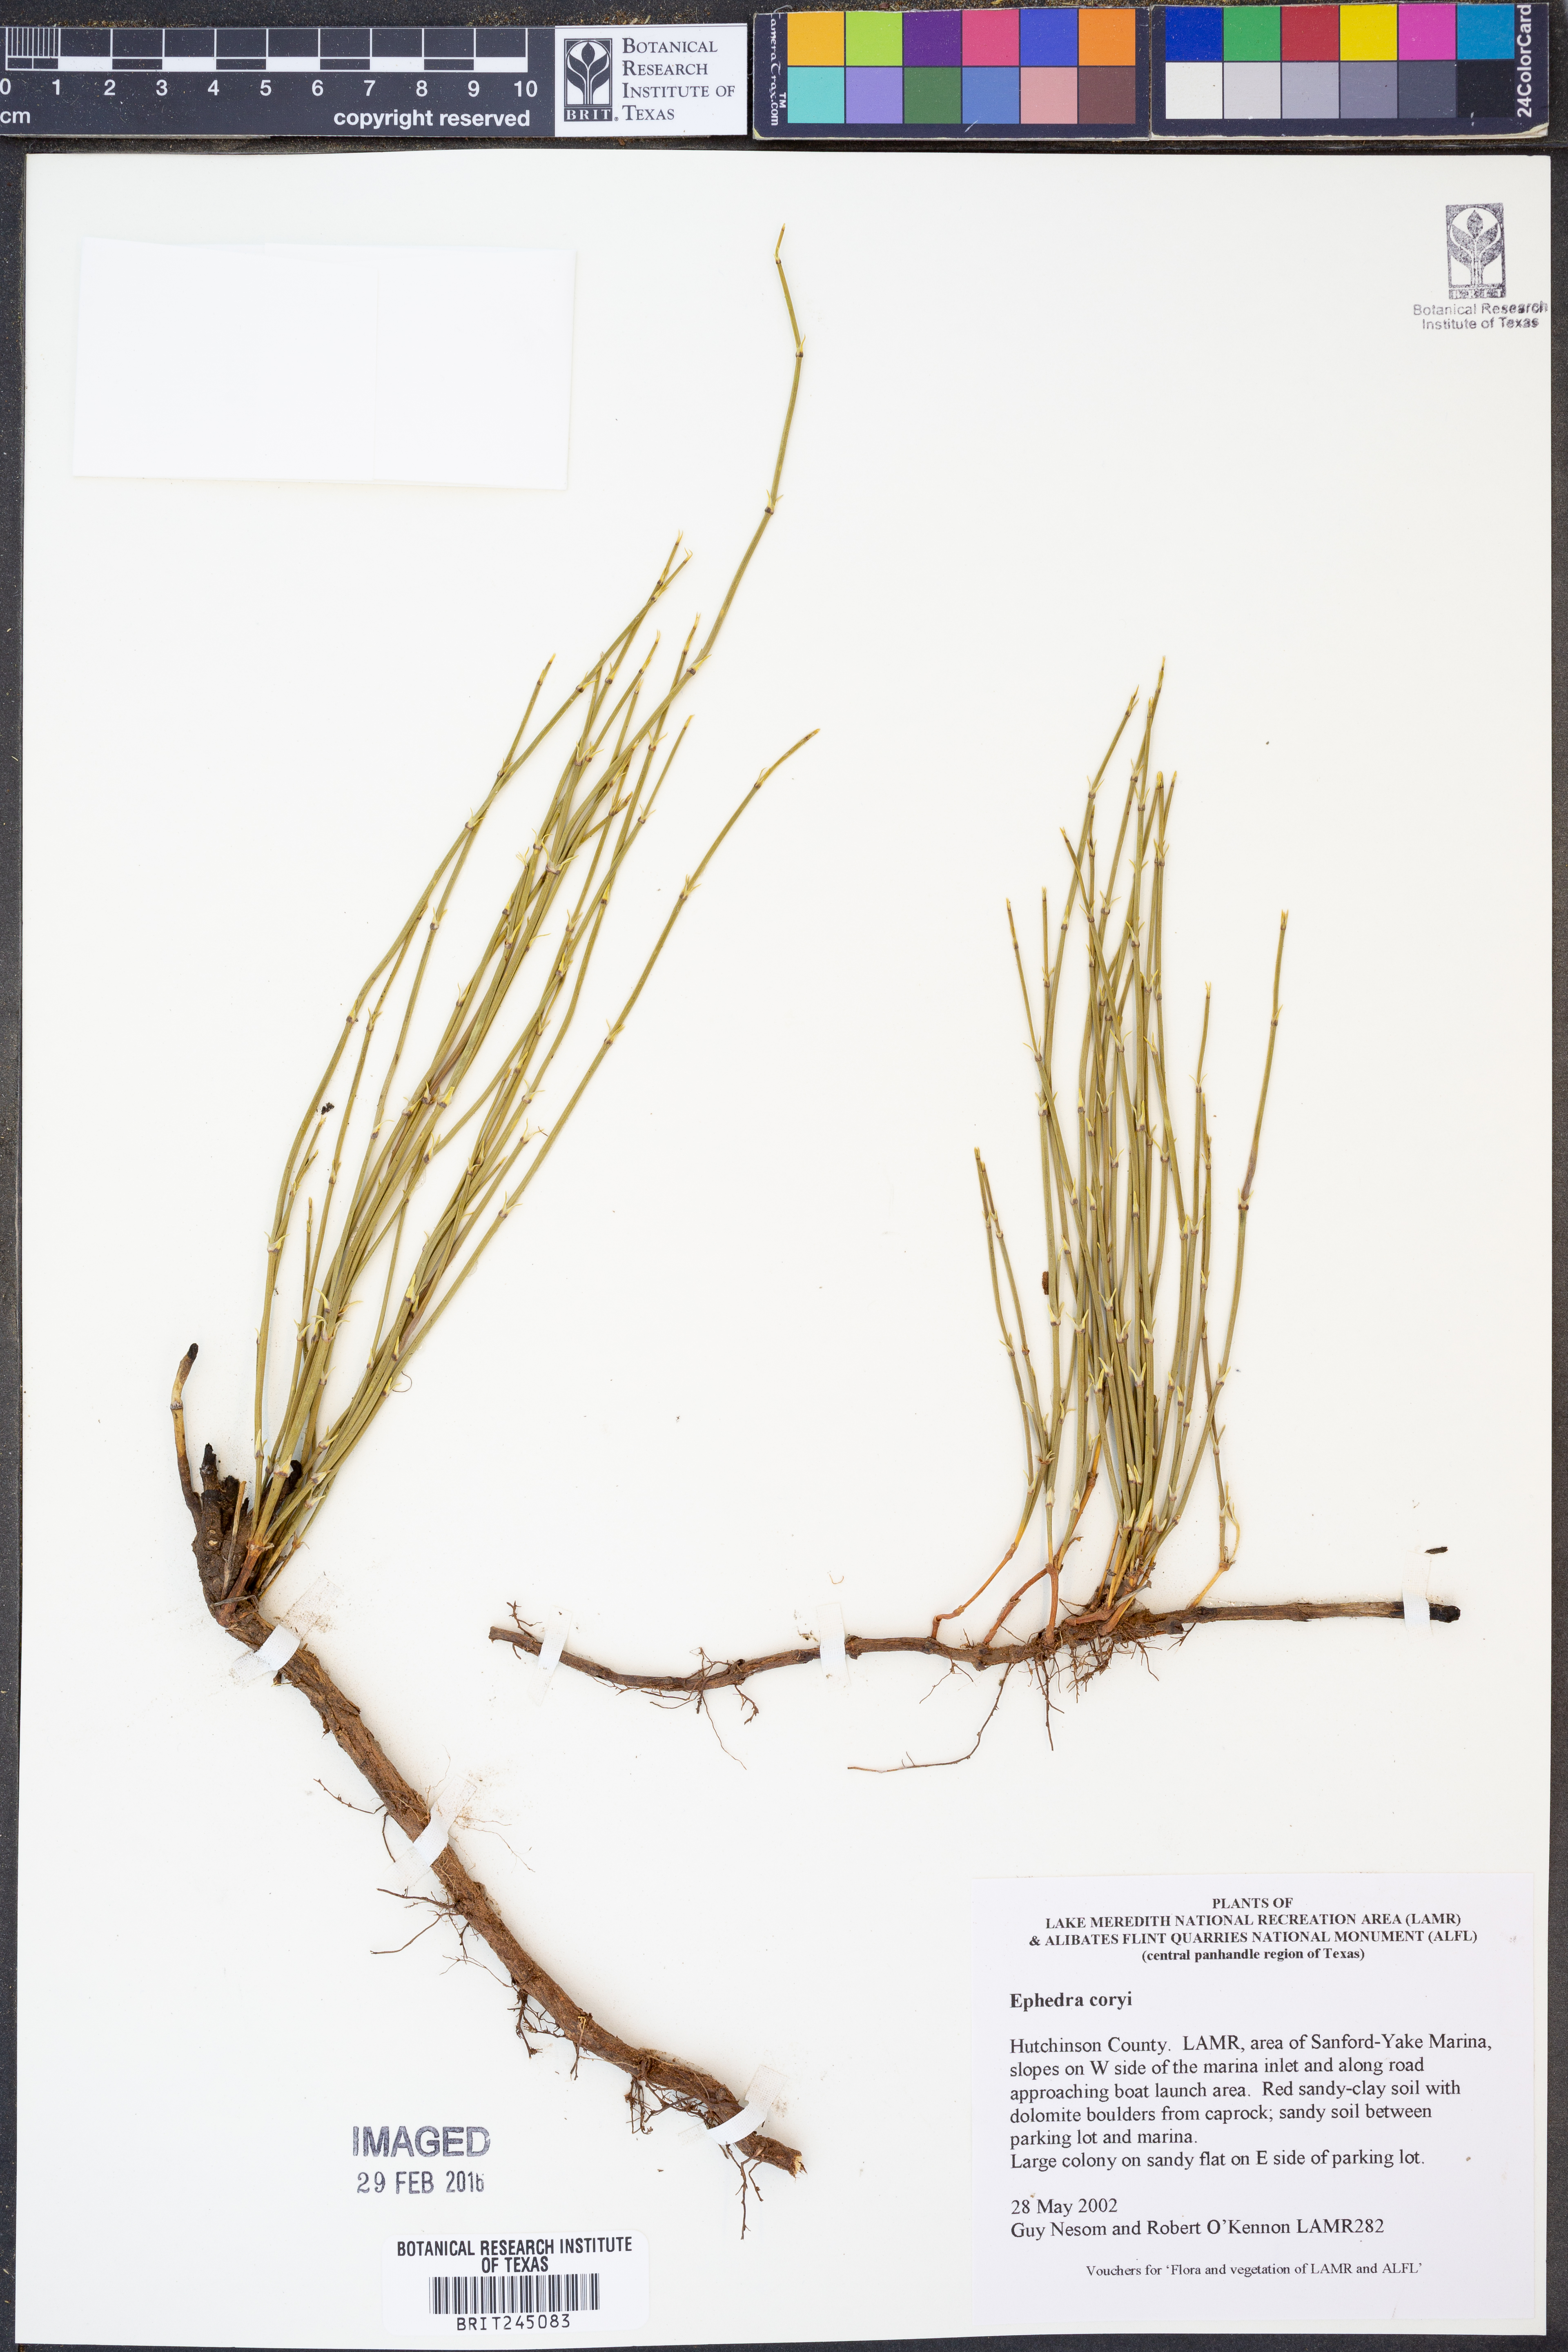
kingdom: Plantae
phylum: Tracheophyta
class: Gnetopsida
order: Ephedrales
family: Ephedraceae
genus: Ephedra
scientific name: Ephedra coryi
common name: Cory's ephedra
